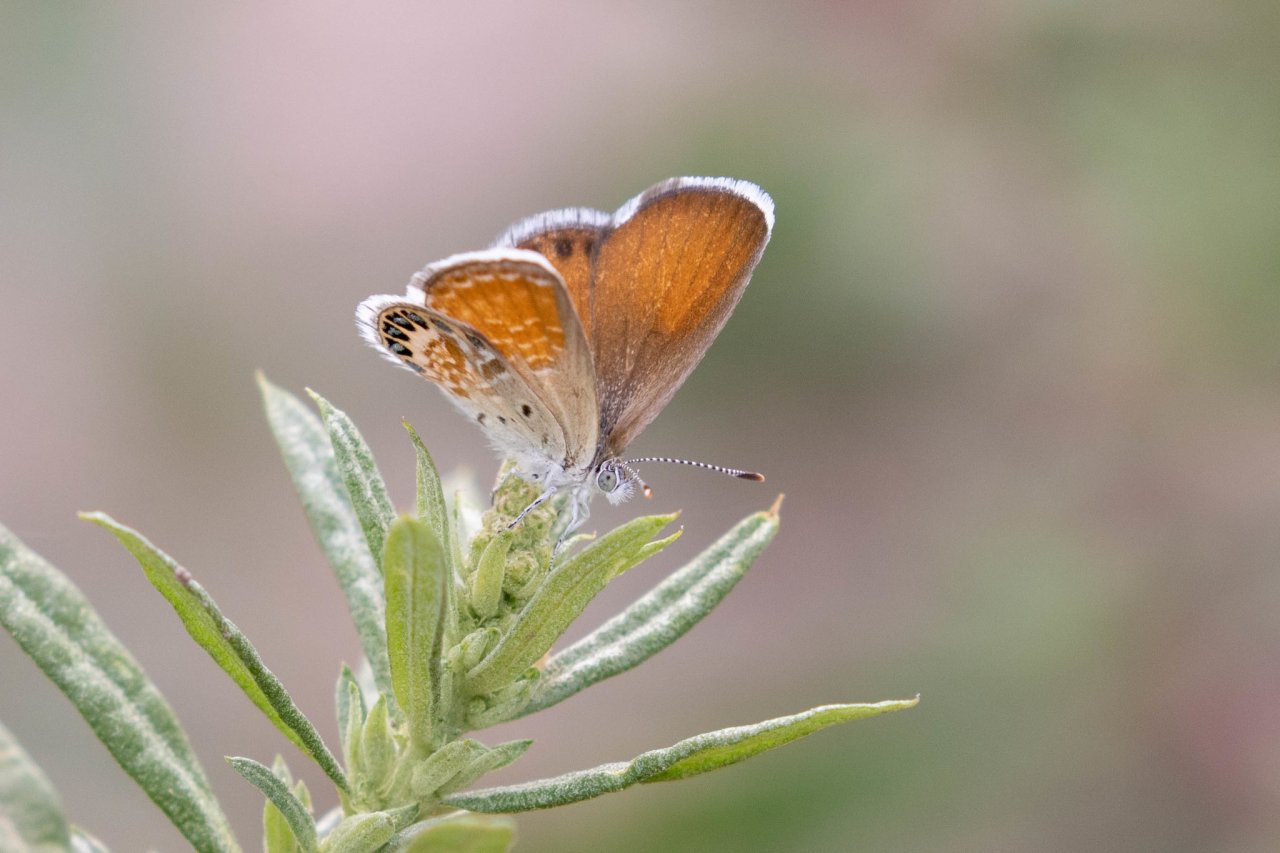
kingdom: Animalia
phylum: Arthropoda
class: Insecta
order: Lepidoptera
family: Lycaenidae
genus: Brephidium
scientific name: Brephidium exilis
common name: Western Pygmy-Blue
